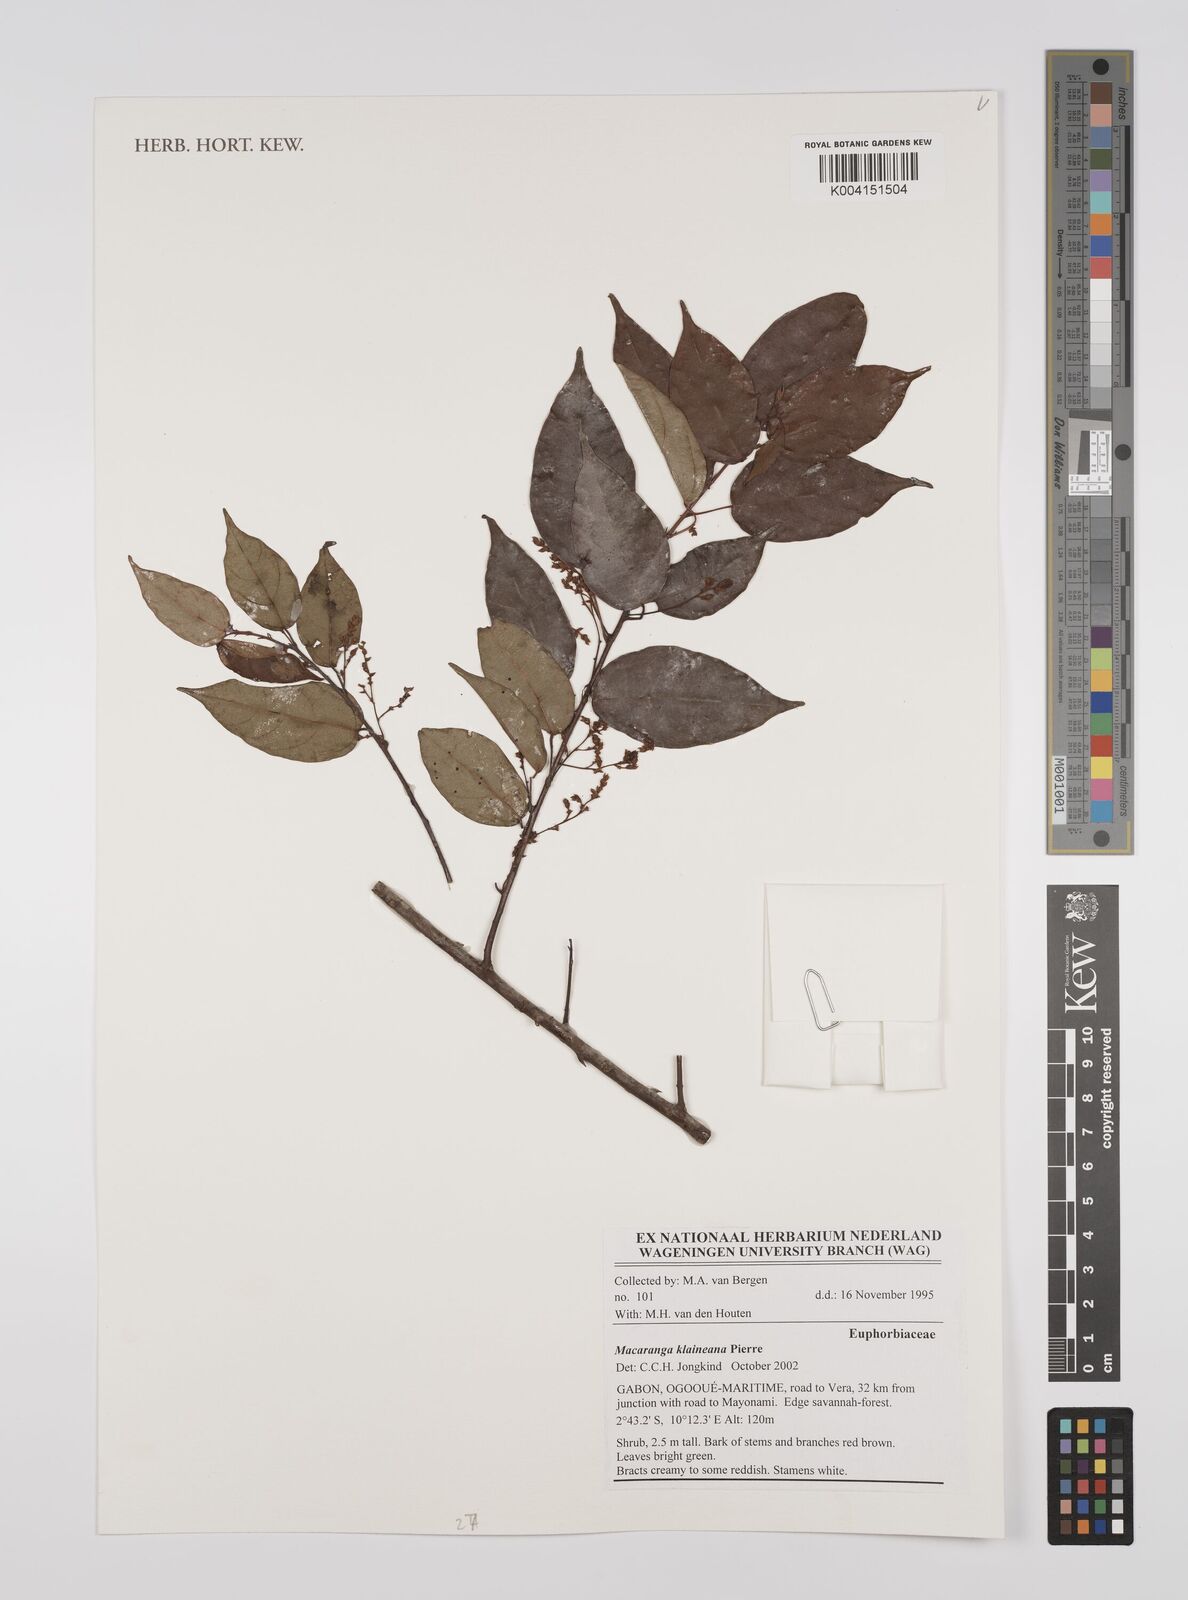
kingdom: Plantae
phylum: Tracheophyta
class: Magnoliopsida
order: Malpighiales
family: Euphorbiaceae
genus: Macaranga
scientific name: Macaranga klaineana
